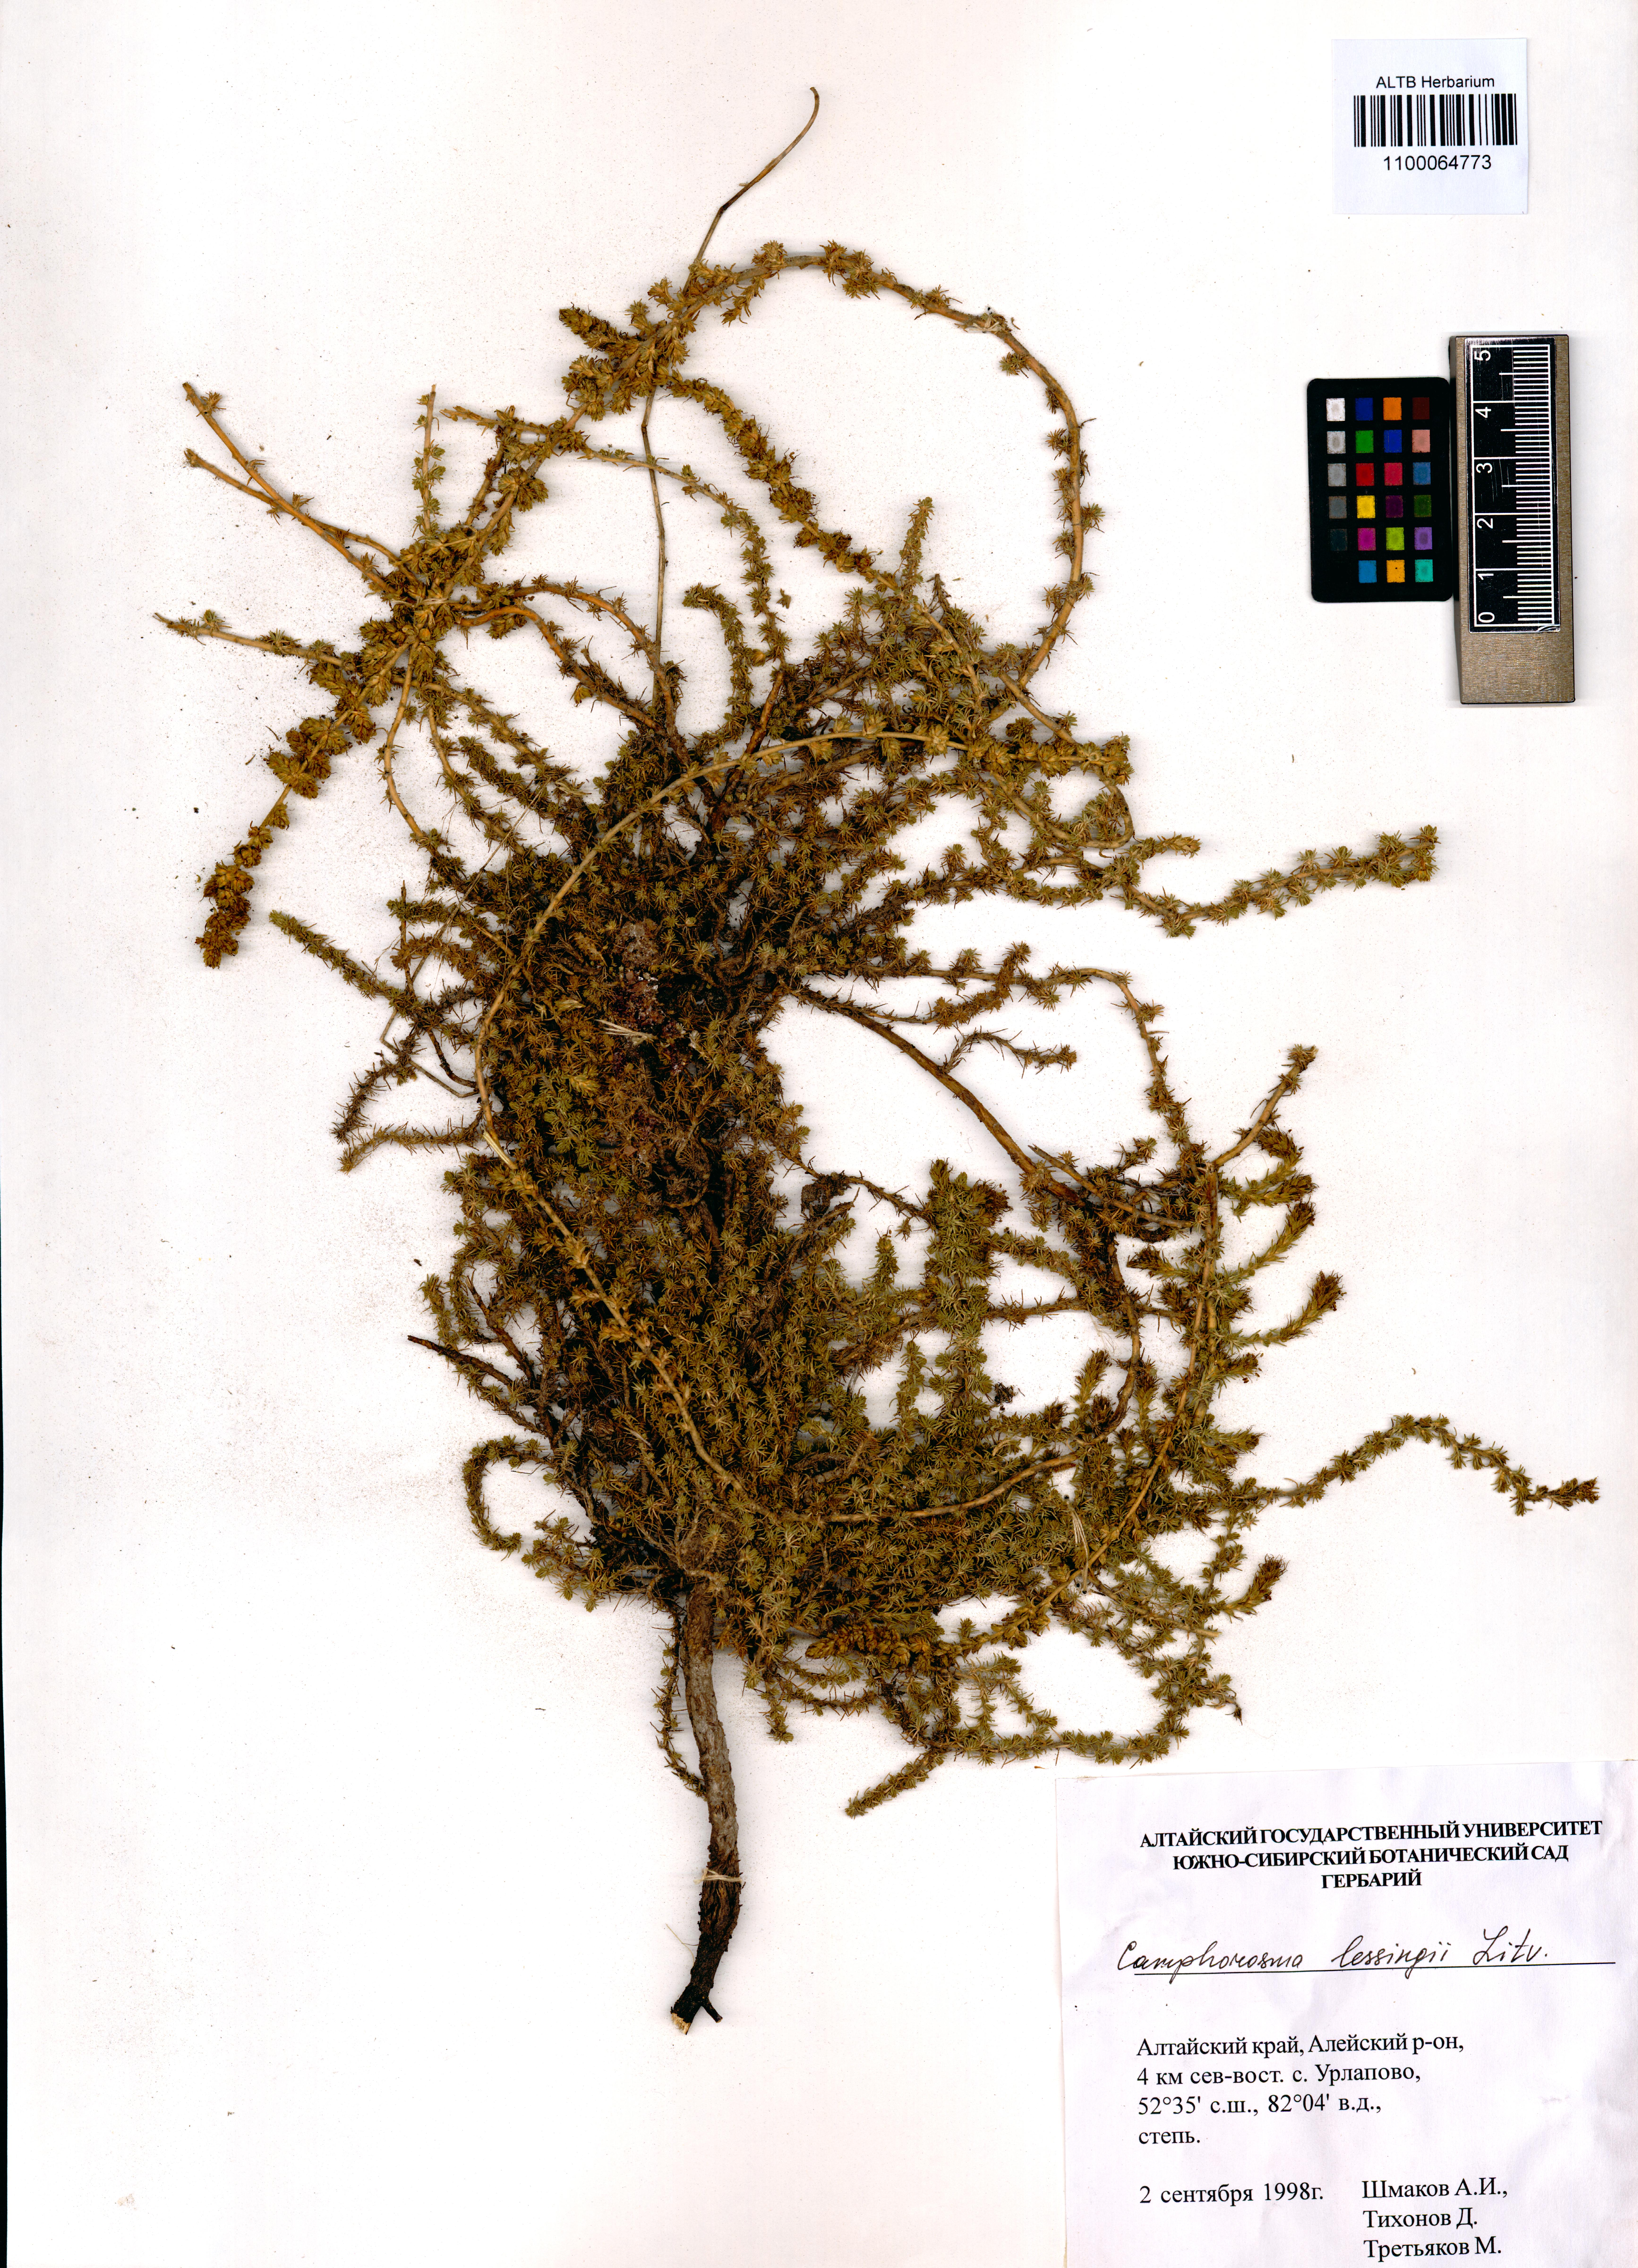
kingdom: Plantae
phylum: Tracheophyta
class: Magnoliopsida
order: Caryophyllales
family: Amaranthaceae
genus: Camphorosma
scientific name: Camphorosma monspeliaca
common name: Camphorfume
